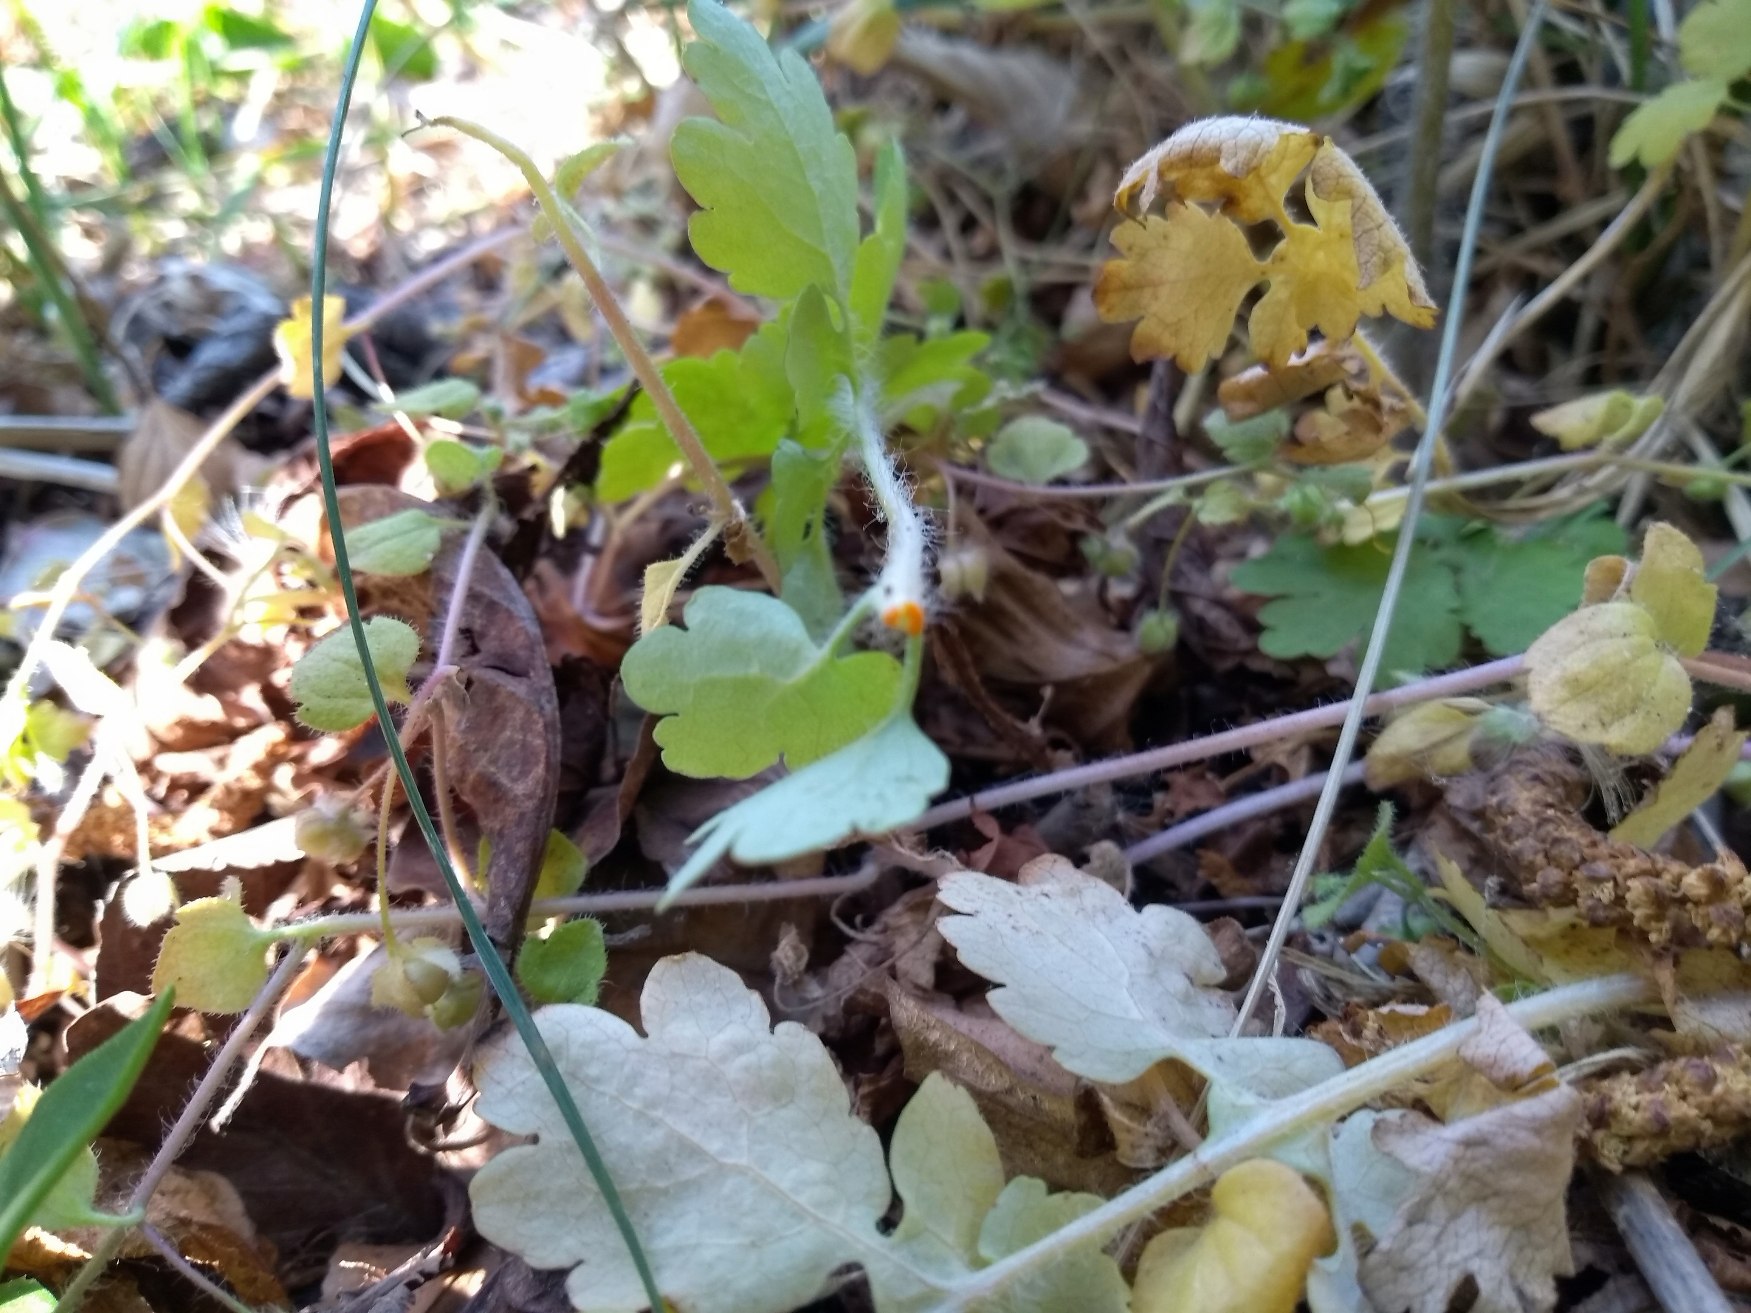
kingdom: Plantae
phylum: Tracheophyta
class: Magnoliopsida
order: Ranunculales
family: Papaveraceae
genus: Chelidonium
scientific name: Chelidonium majus
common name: Svaleurt
